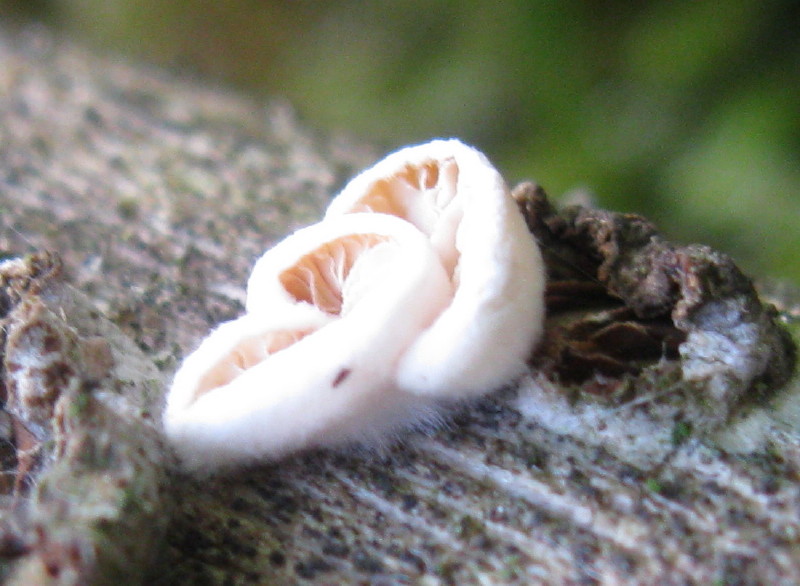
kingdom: Fungi
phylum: Basidiomycota
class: Agaricomycetes
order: Agaricales
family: Crepidotaceae
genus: Crepidotus
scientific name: Crepidotus
